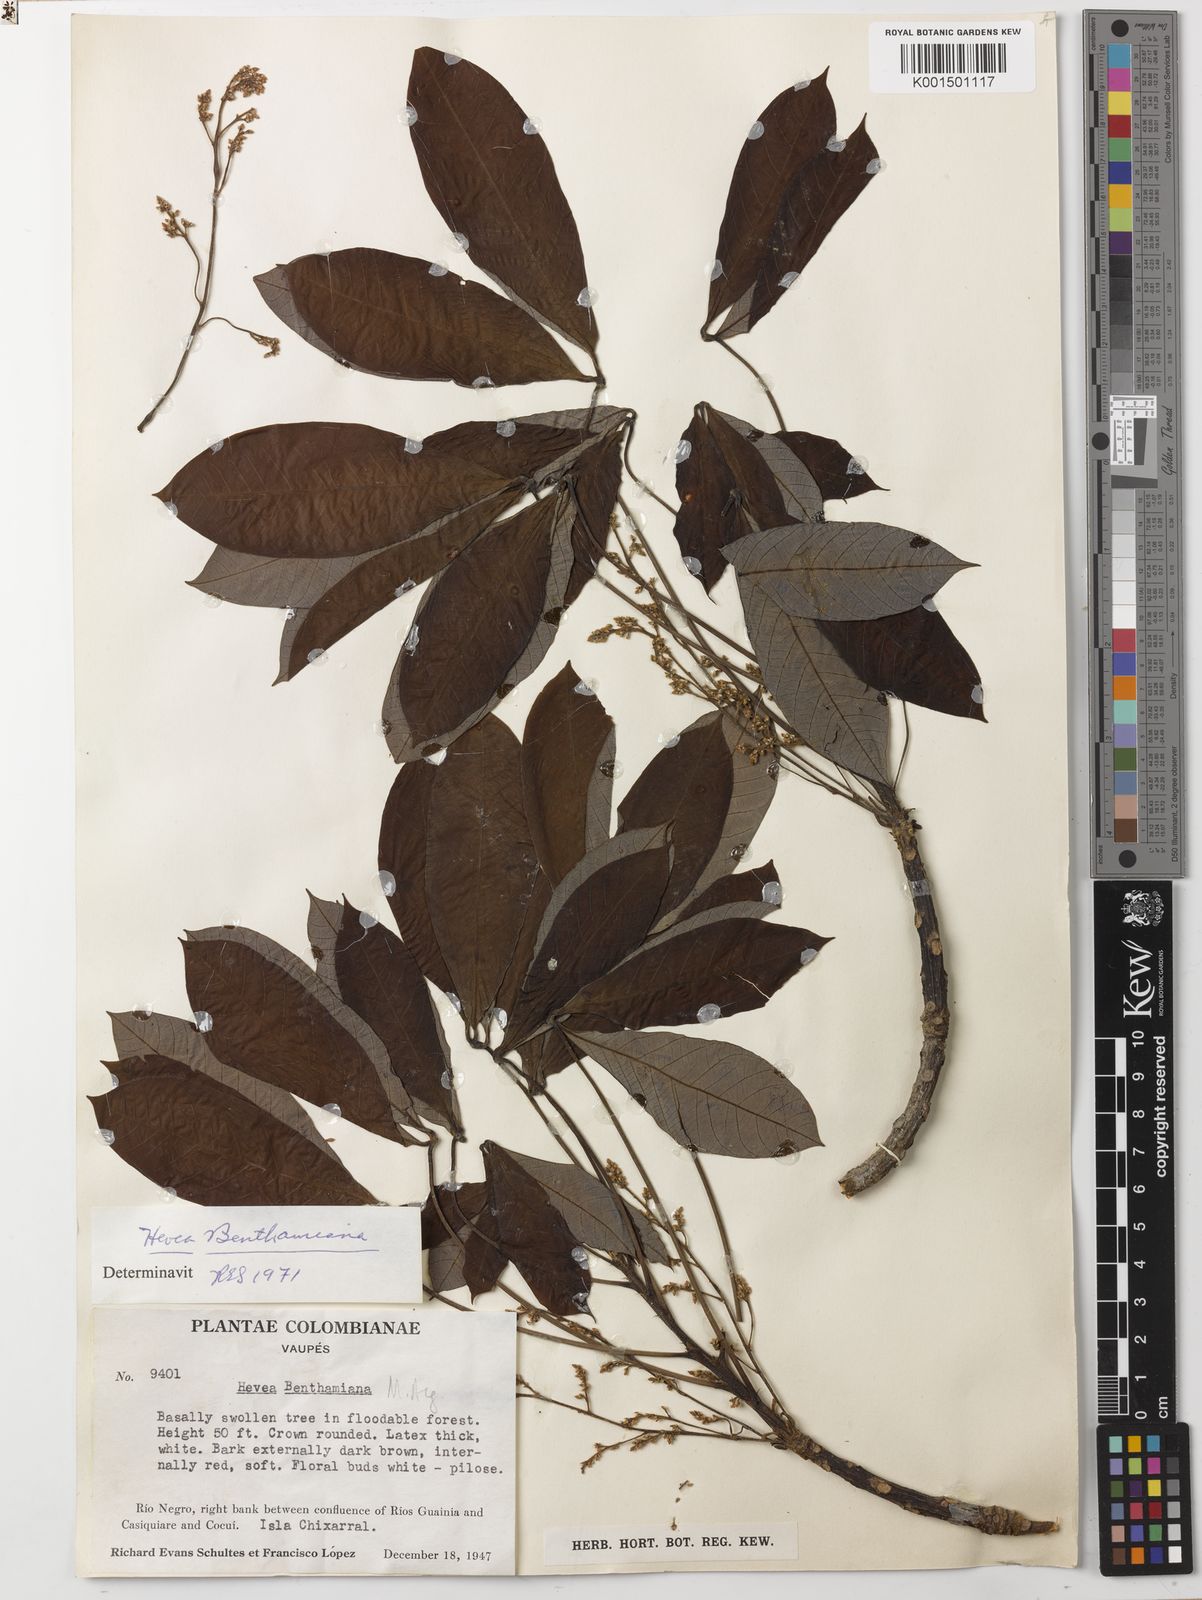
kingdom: Plantae
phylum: Tracheophyta
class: Magnoliopsida
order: Malpighiales
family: Euphorbiaceae
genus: Hevea
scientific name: Hevea benthamiana
